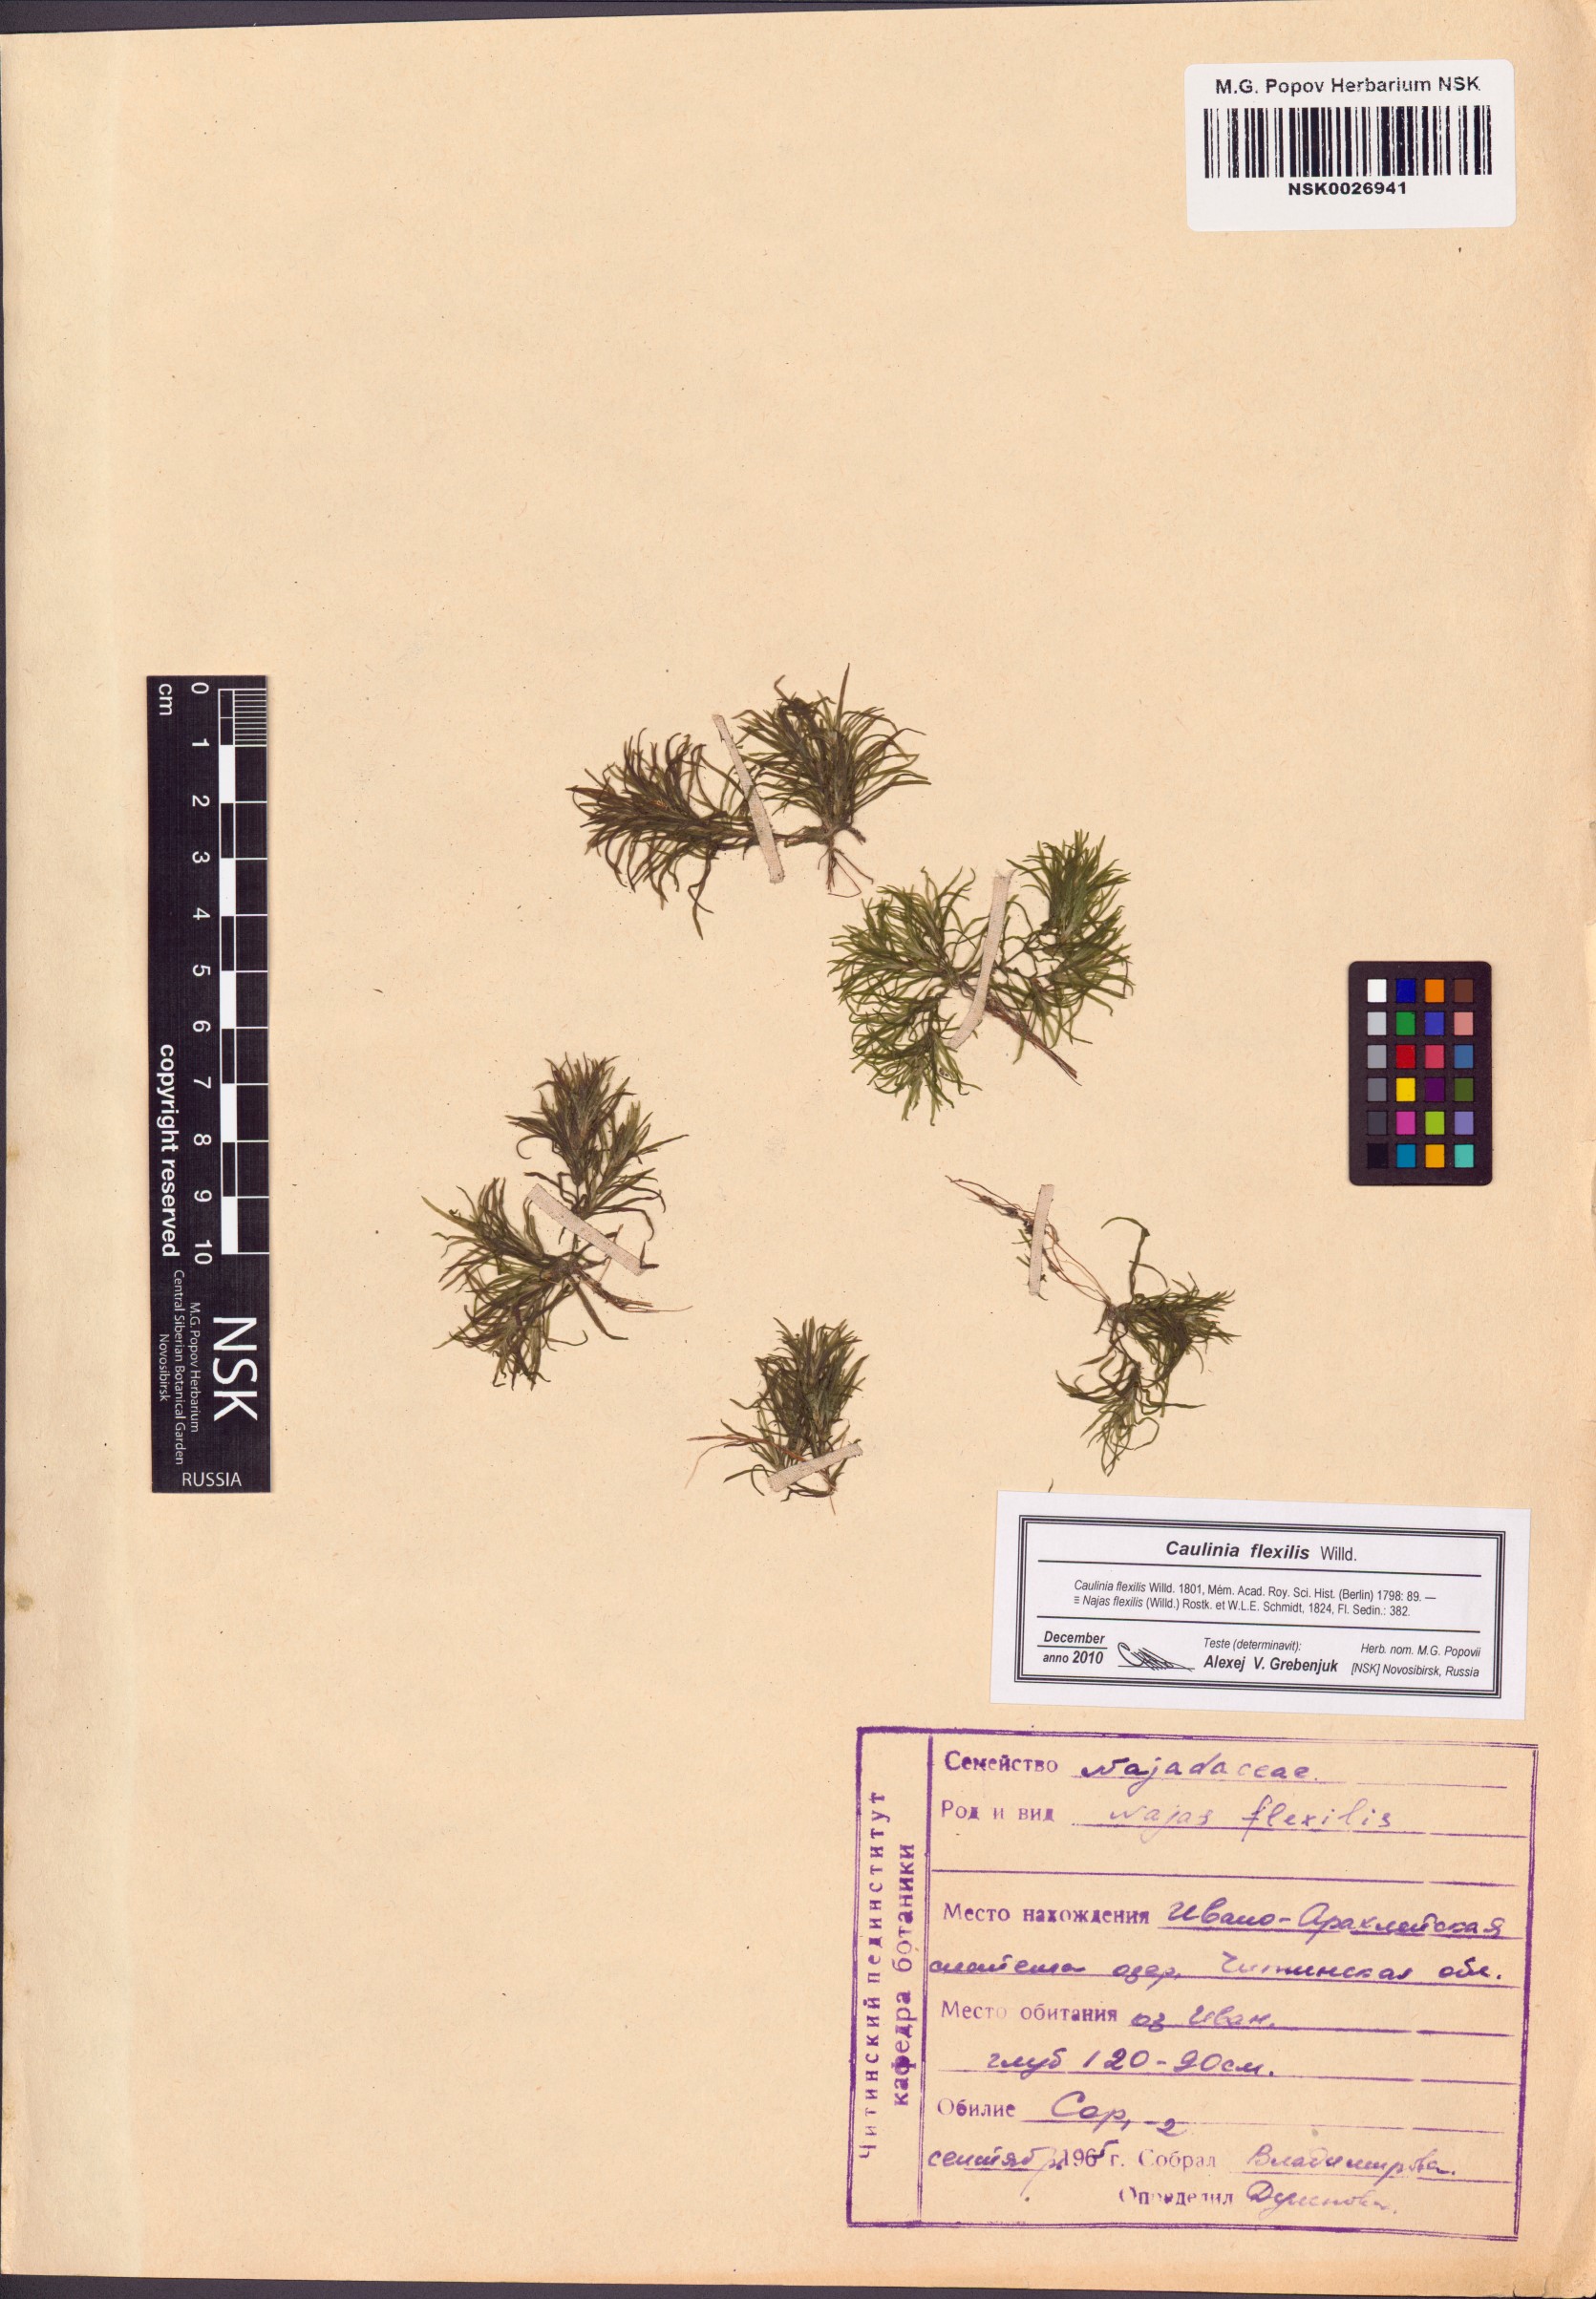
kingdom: Plantae
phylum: Tracheophyta
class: Liliopsida
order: Alismatales
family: Hydrocharitaceae
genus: Najas
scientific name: Najas flexilis
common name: Slender naiad
